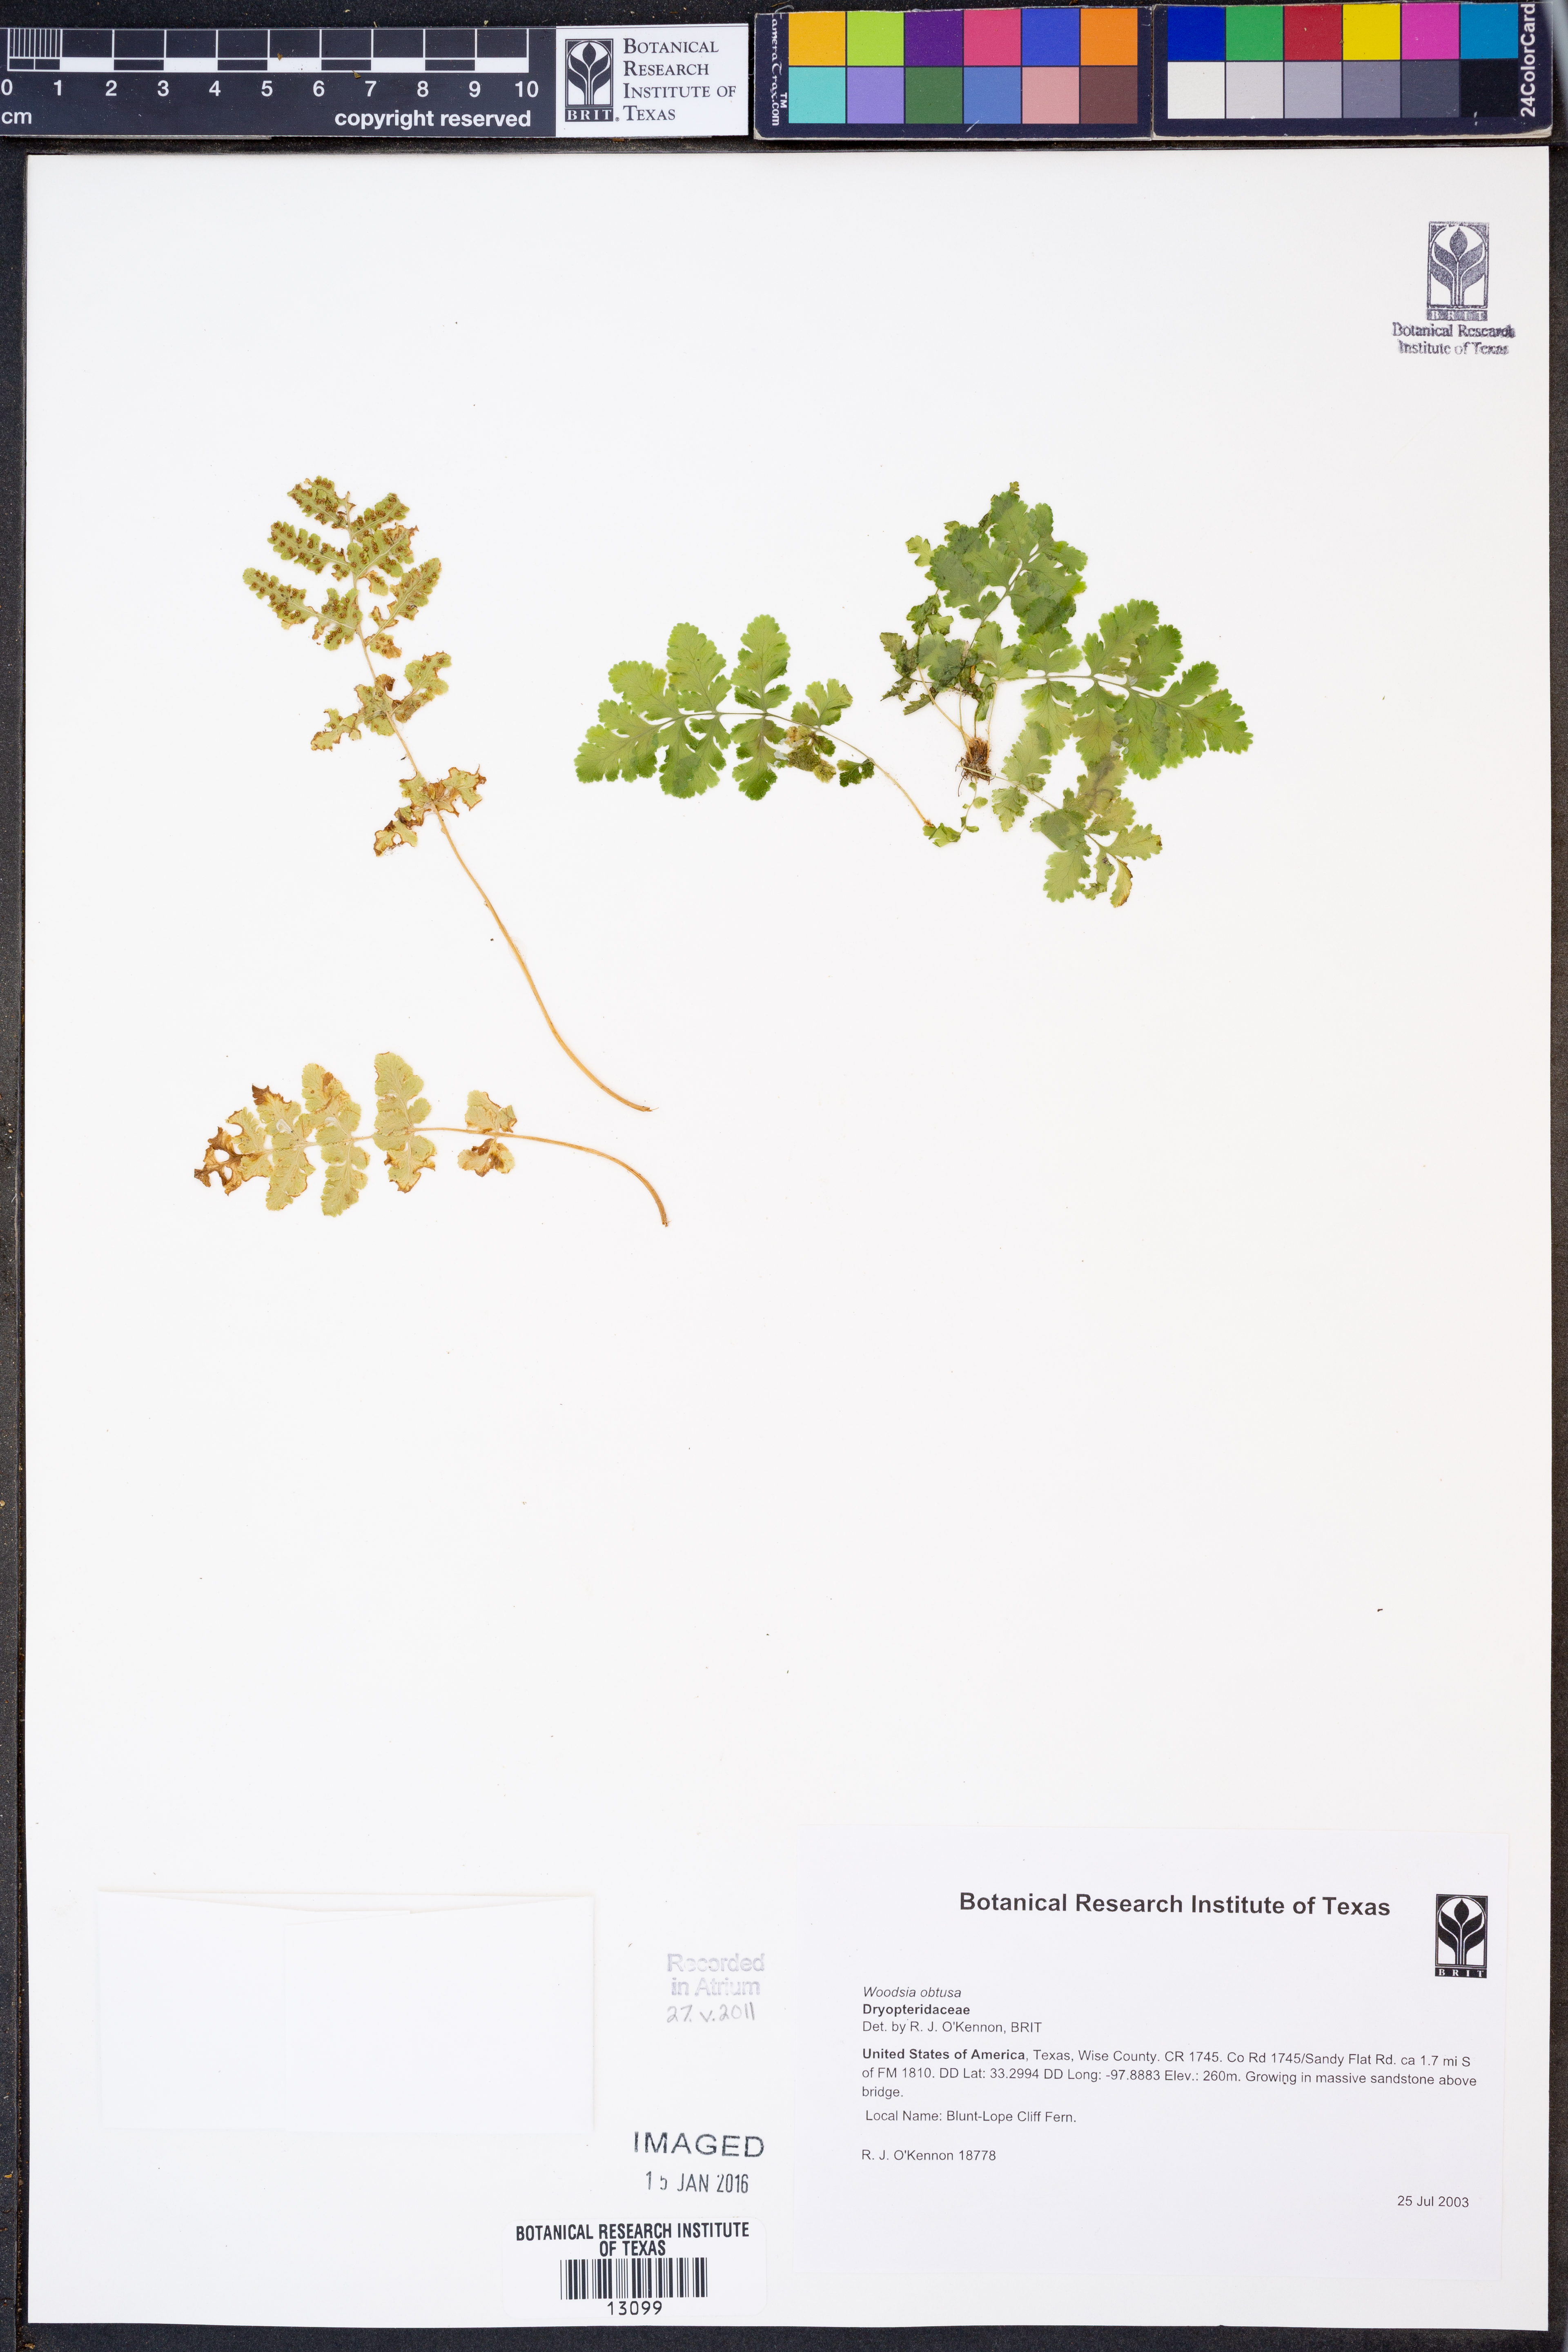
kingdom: Plantae
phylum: Tracheophyta
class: Polypodiopsida
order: Polypodiales
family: Woodsiaceae
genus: Physematium
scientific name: Physematium obtusum
